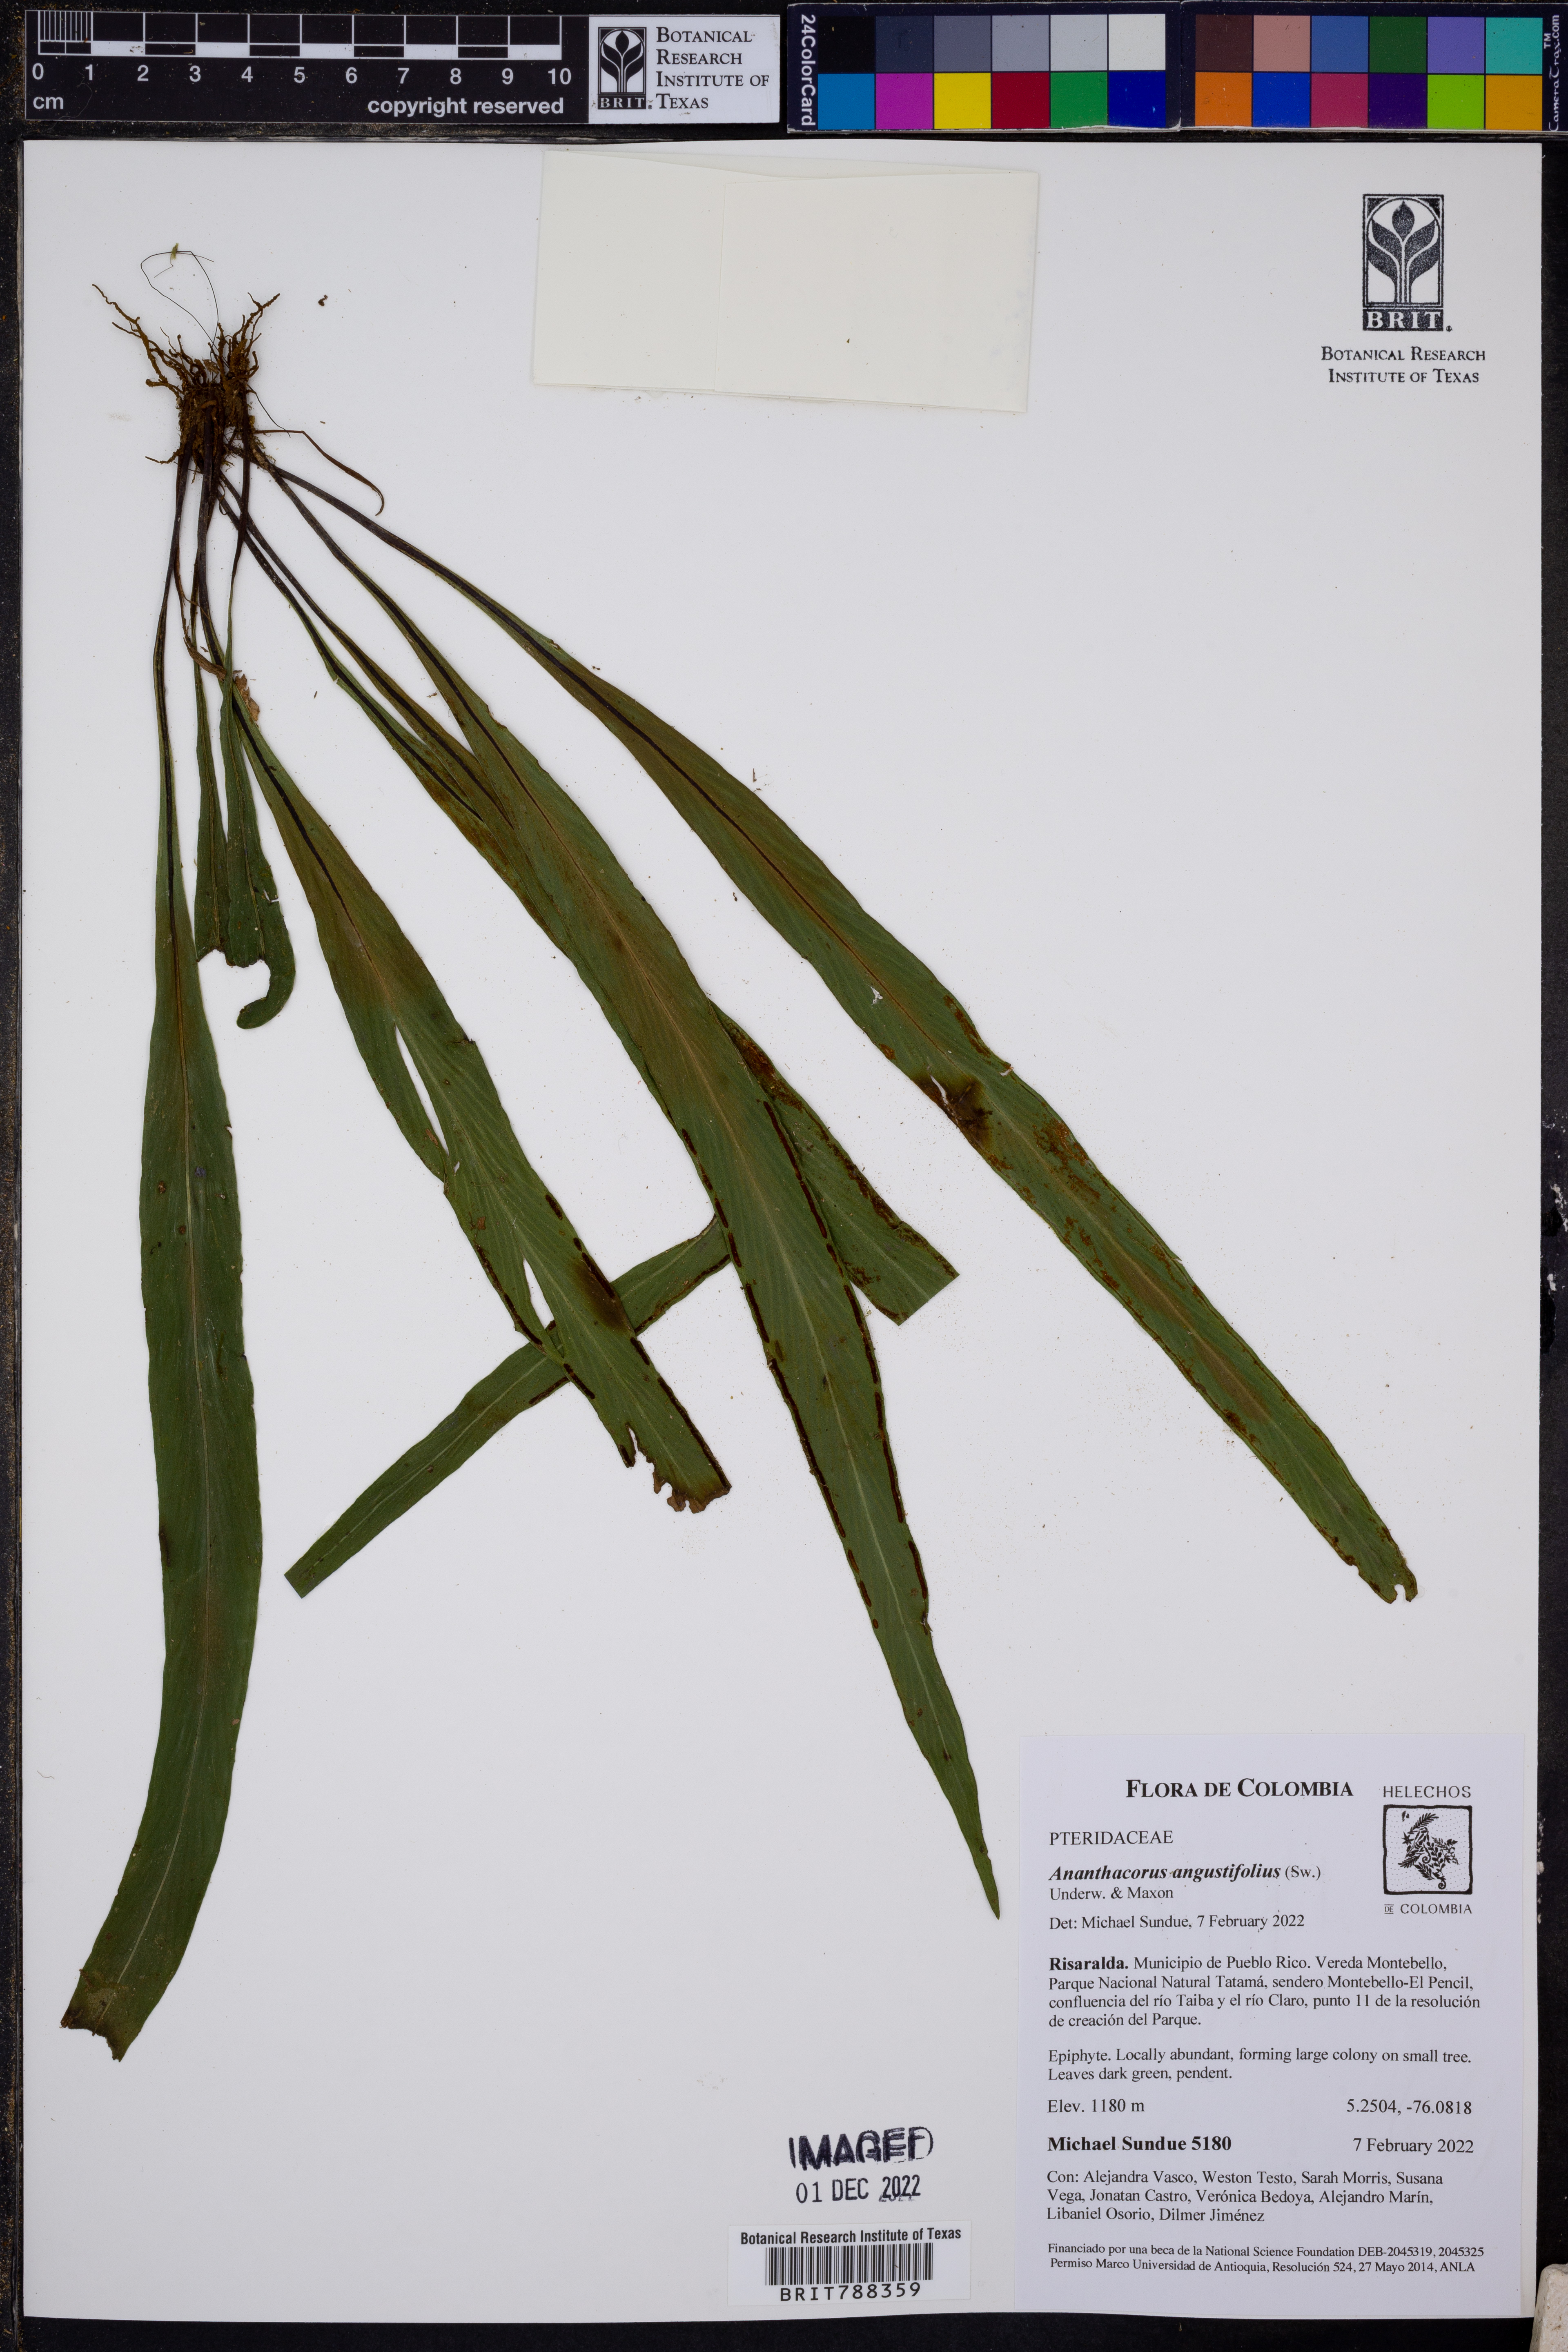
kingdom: Plantae
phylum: Tracheophyta
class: Polypodiopsida
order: Polypodiales
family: Pteridaceae
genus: Ananthacorus
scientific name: Ananthacorus angustifolius
